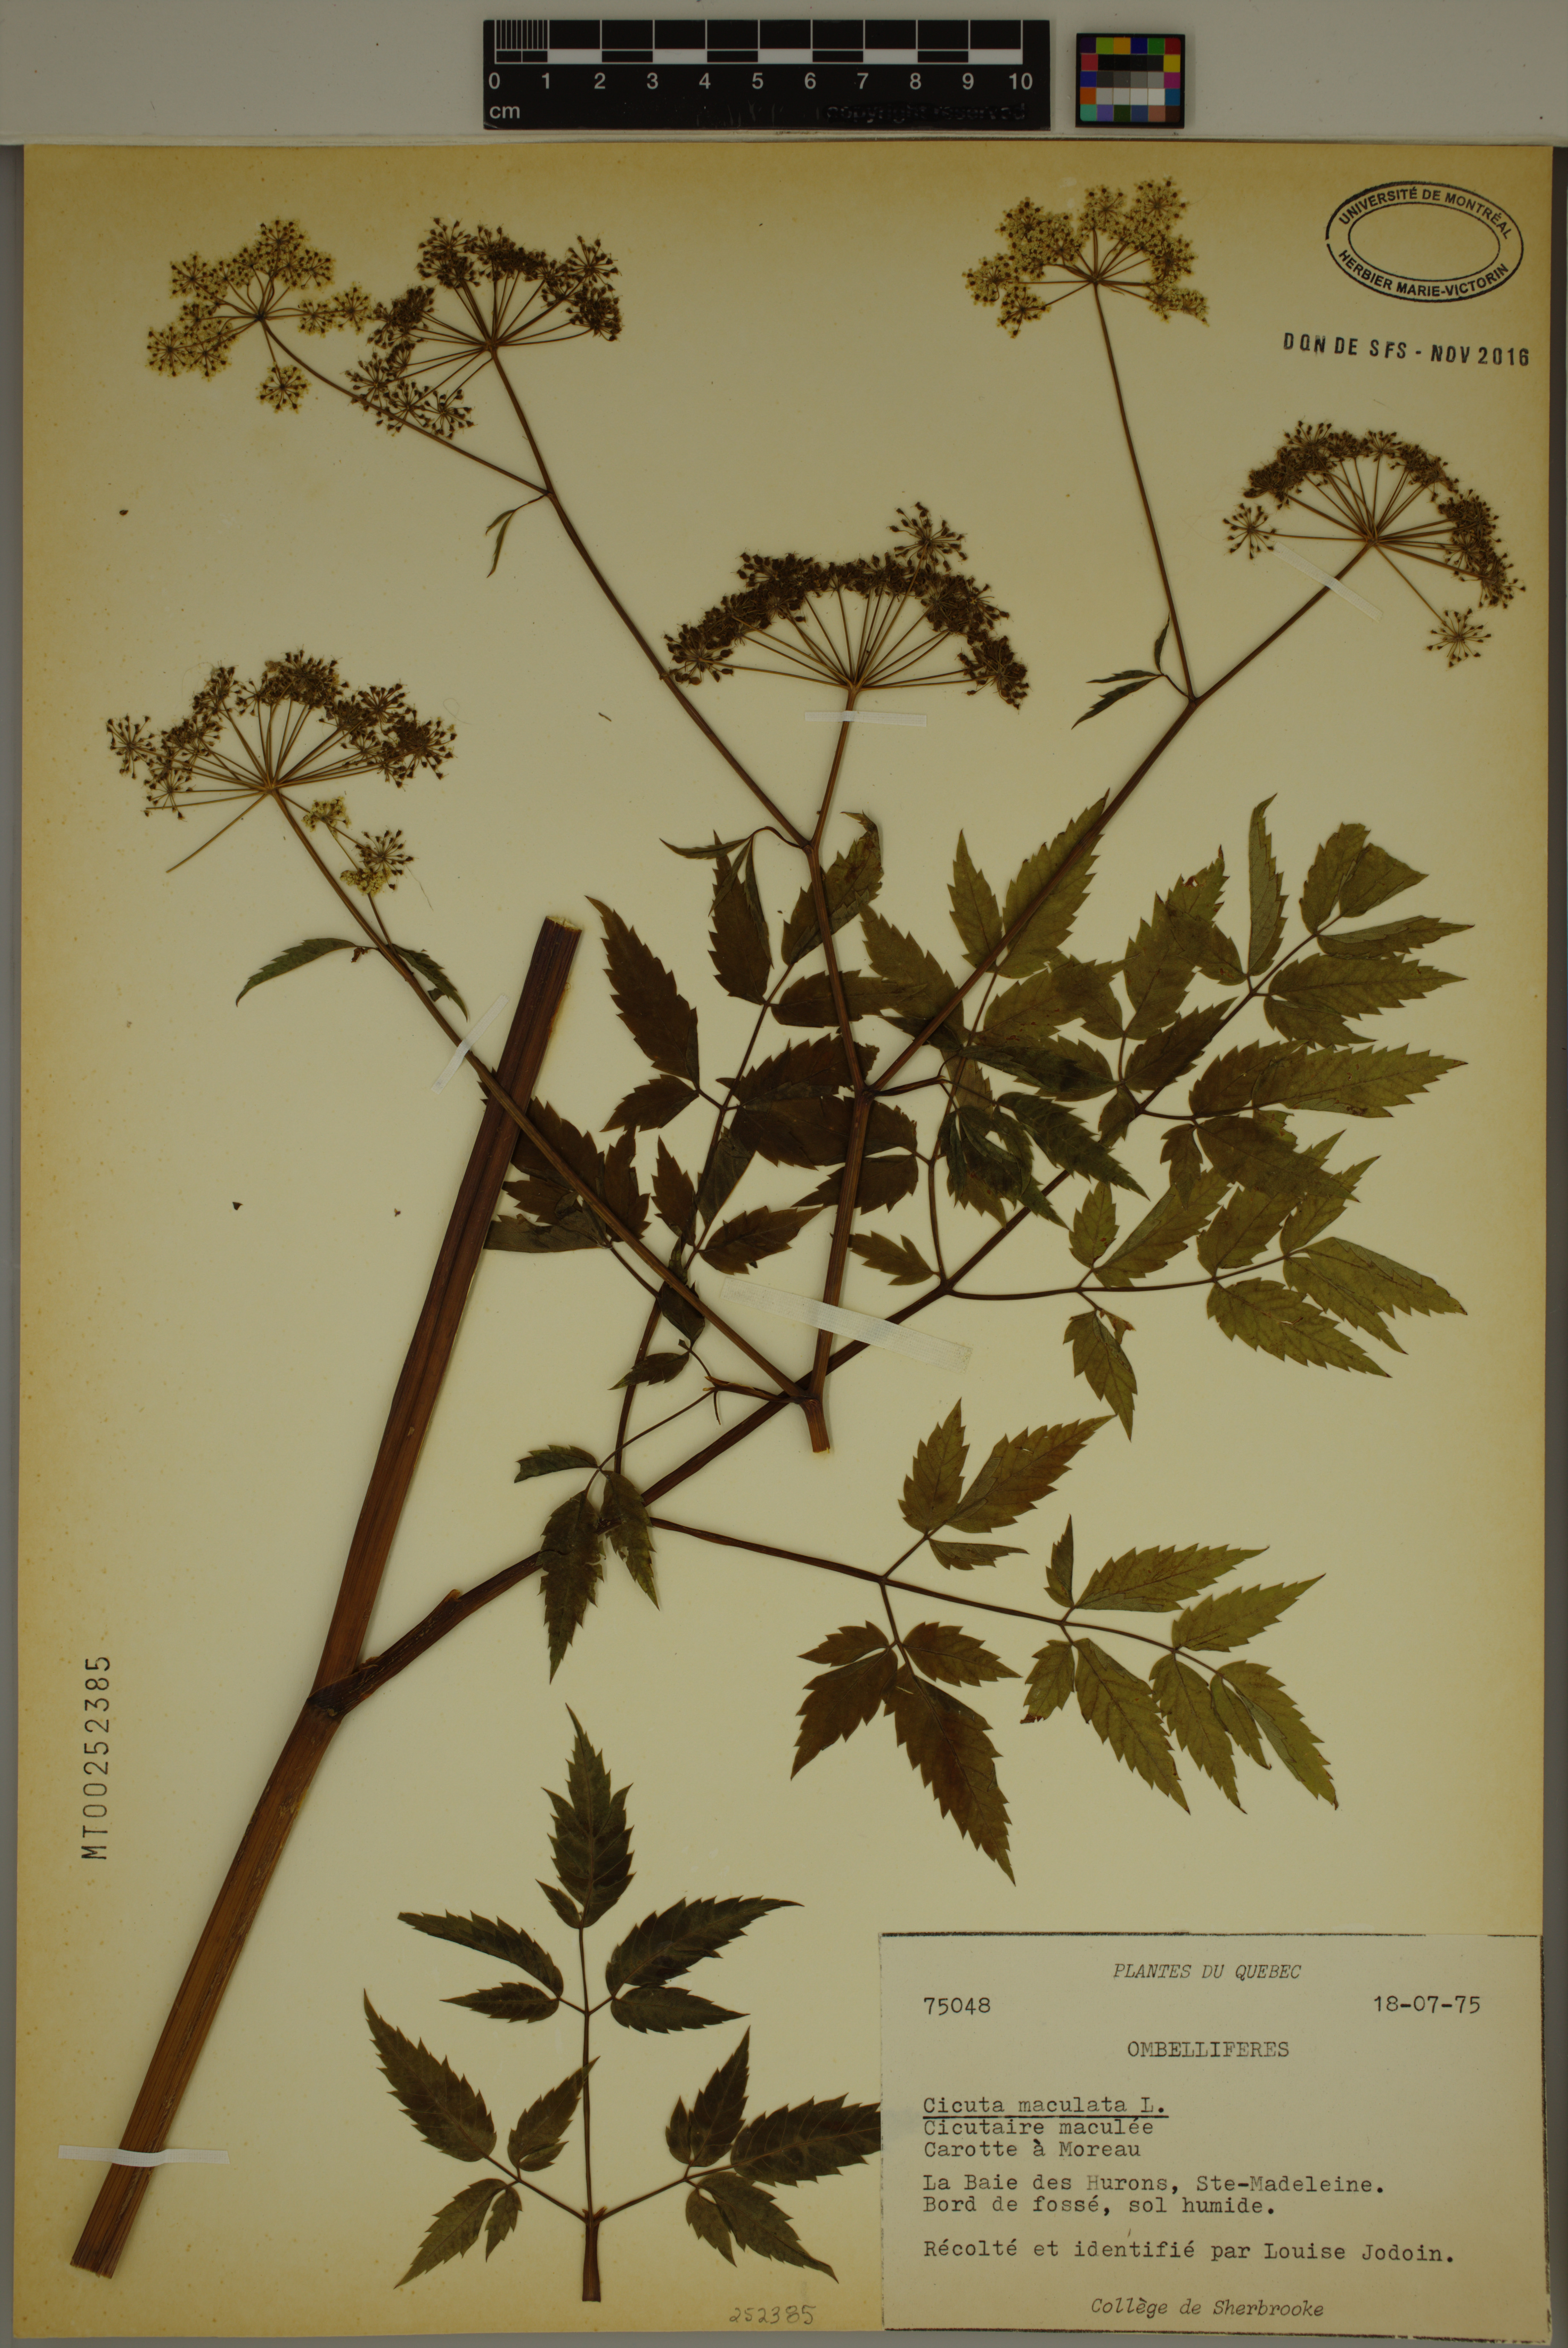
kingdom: Plantae
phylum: Tracheophyta
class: Magnoliopsida
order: Apiales
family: Apiaceae
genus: Cicuta
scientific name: Cicuta maculata
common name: Spotted cowbane
